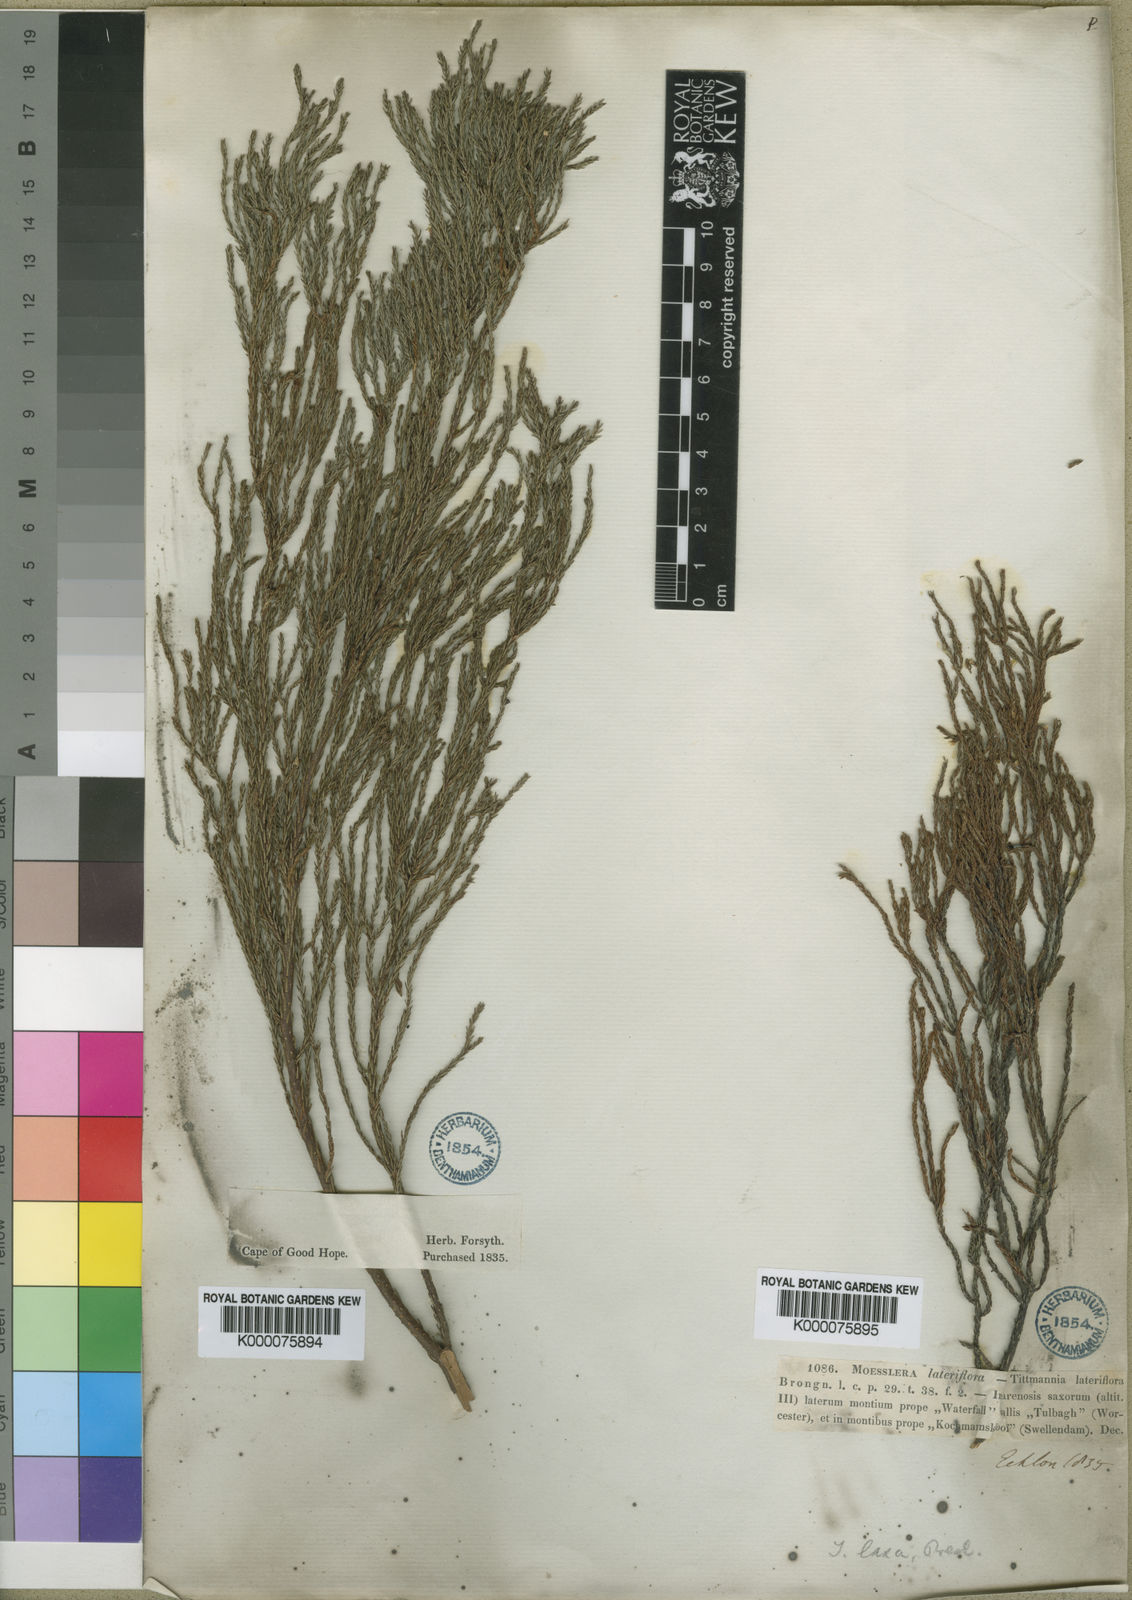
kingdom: Plantae
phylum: Tracheophyta
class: Magnoliopsida
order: Bruniales
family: Bruniaceae
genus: Audouinia
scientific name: Audouinia
